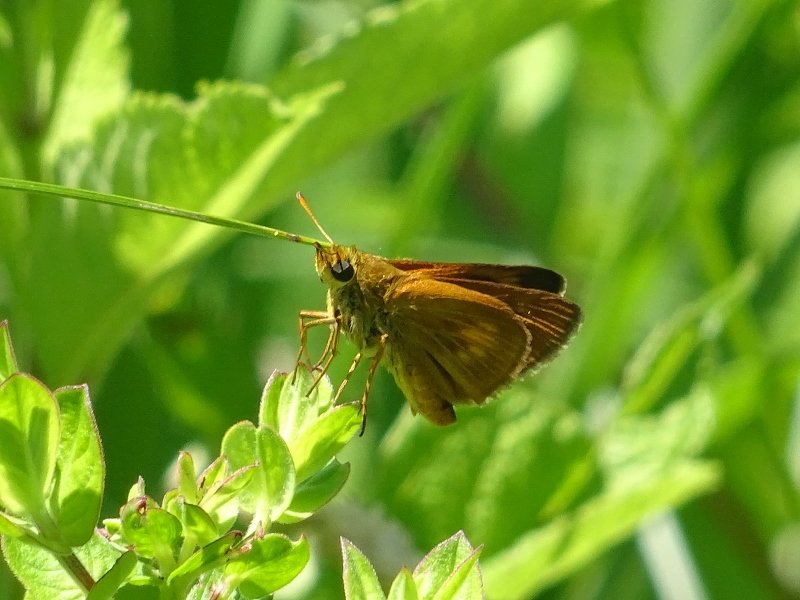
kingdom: Animalia
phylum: Arthropoda
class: Insecta
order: Lepidoptera
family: Hesperiidae
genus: Euphyes
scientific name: Euphyes conspicua
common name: Black Dash
